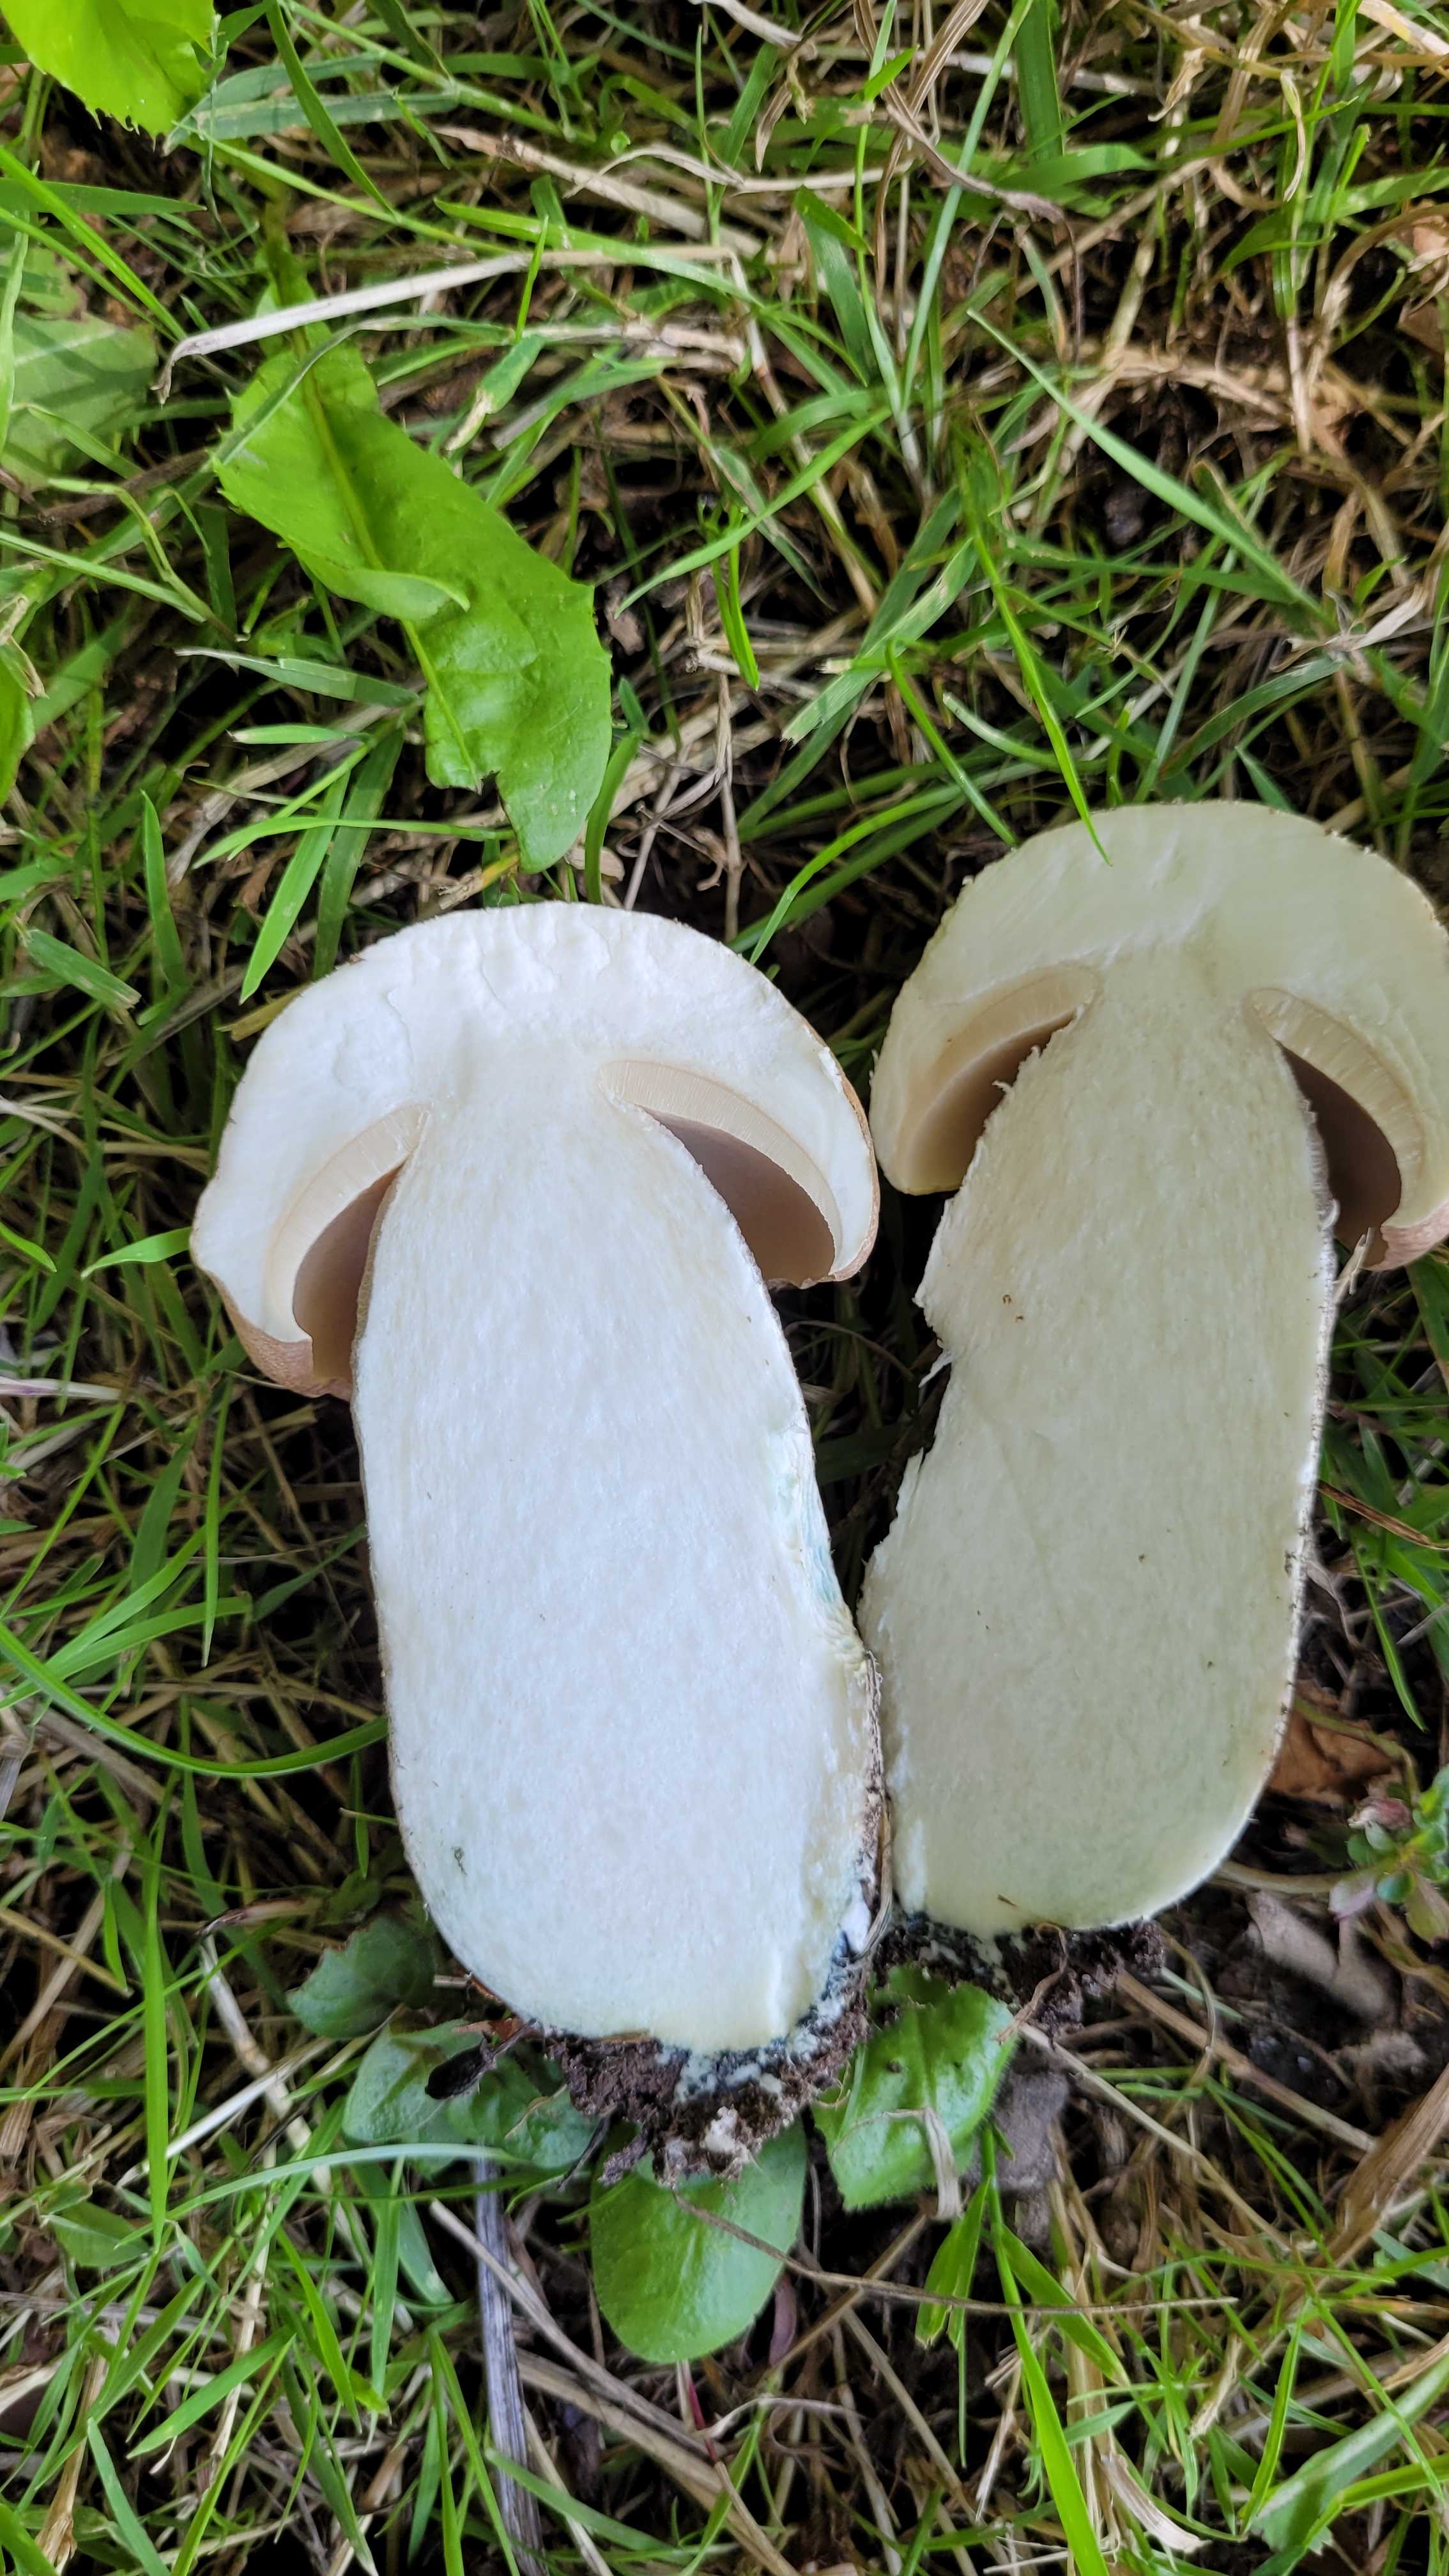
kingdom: Fungi
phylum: Basidiomycota
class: Agaricomycetes
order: Boletales
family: Boletaceae
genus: Leccinum
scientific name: Leccinum duriusculum
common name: poppel-skælrørhat
